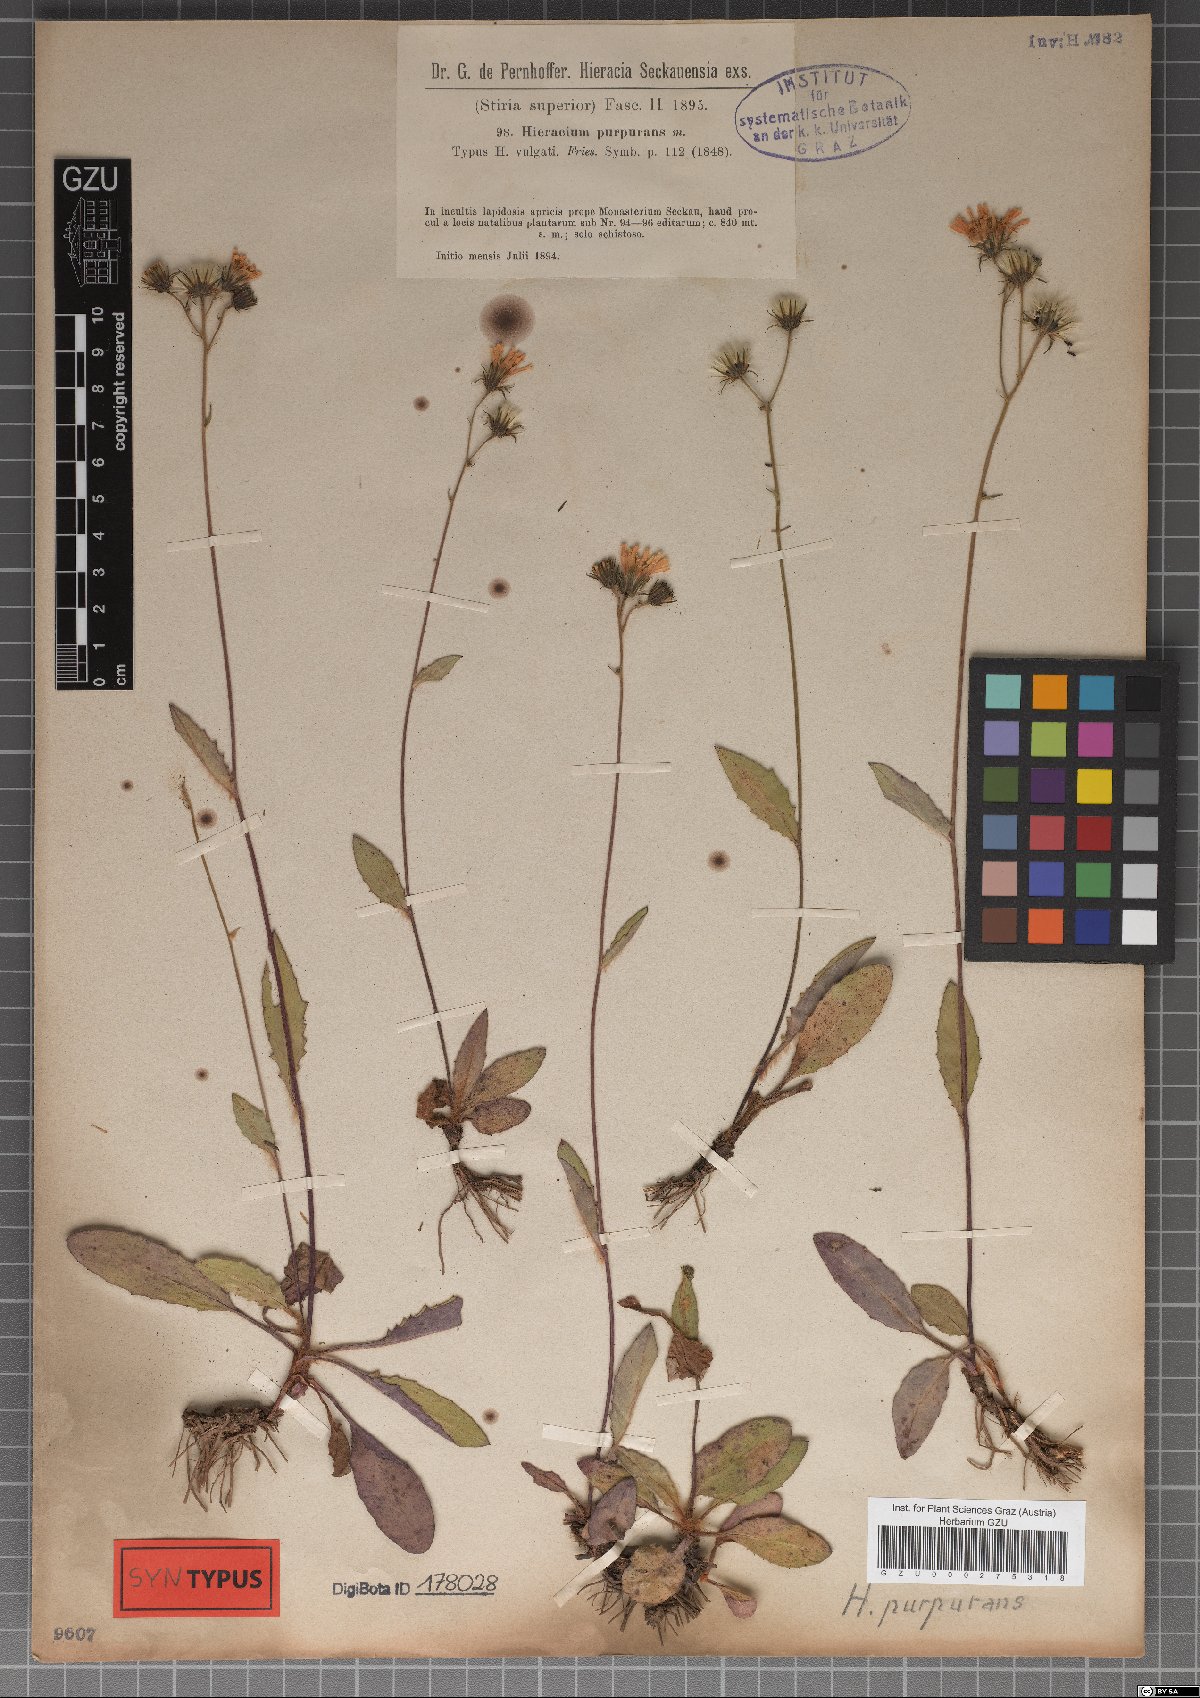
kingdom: Plantae
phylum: Tracheophyta
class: Magnoliopsida
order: Asterales
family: Asteraceae
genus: Hieracium
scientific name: Hieracium purpurans
